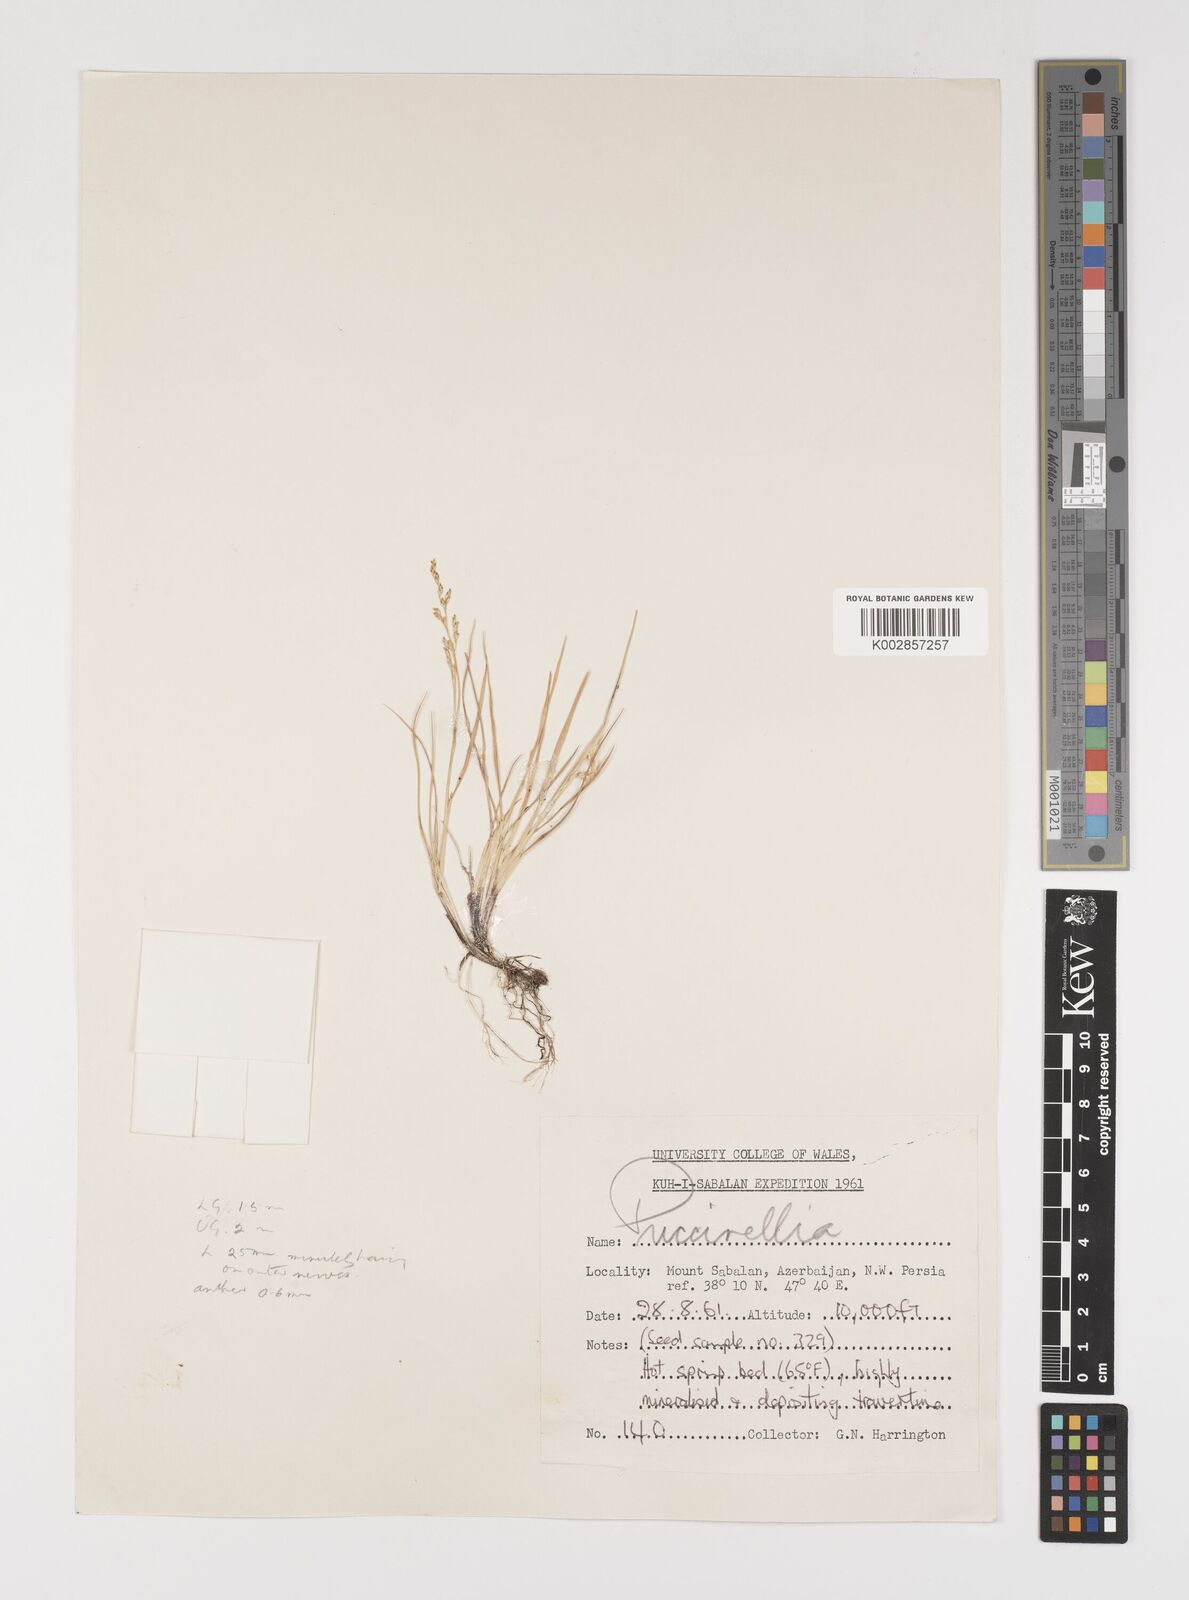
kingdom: Plantae
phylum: Tracheophyta
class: Liliopsida
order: Poales
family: Poaceae
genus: Puccinellia
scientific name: Puccinellia koeieana
